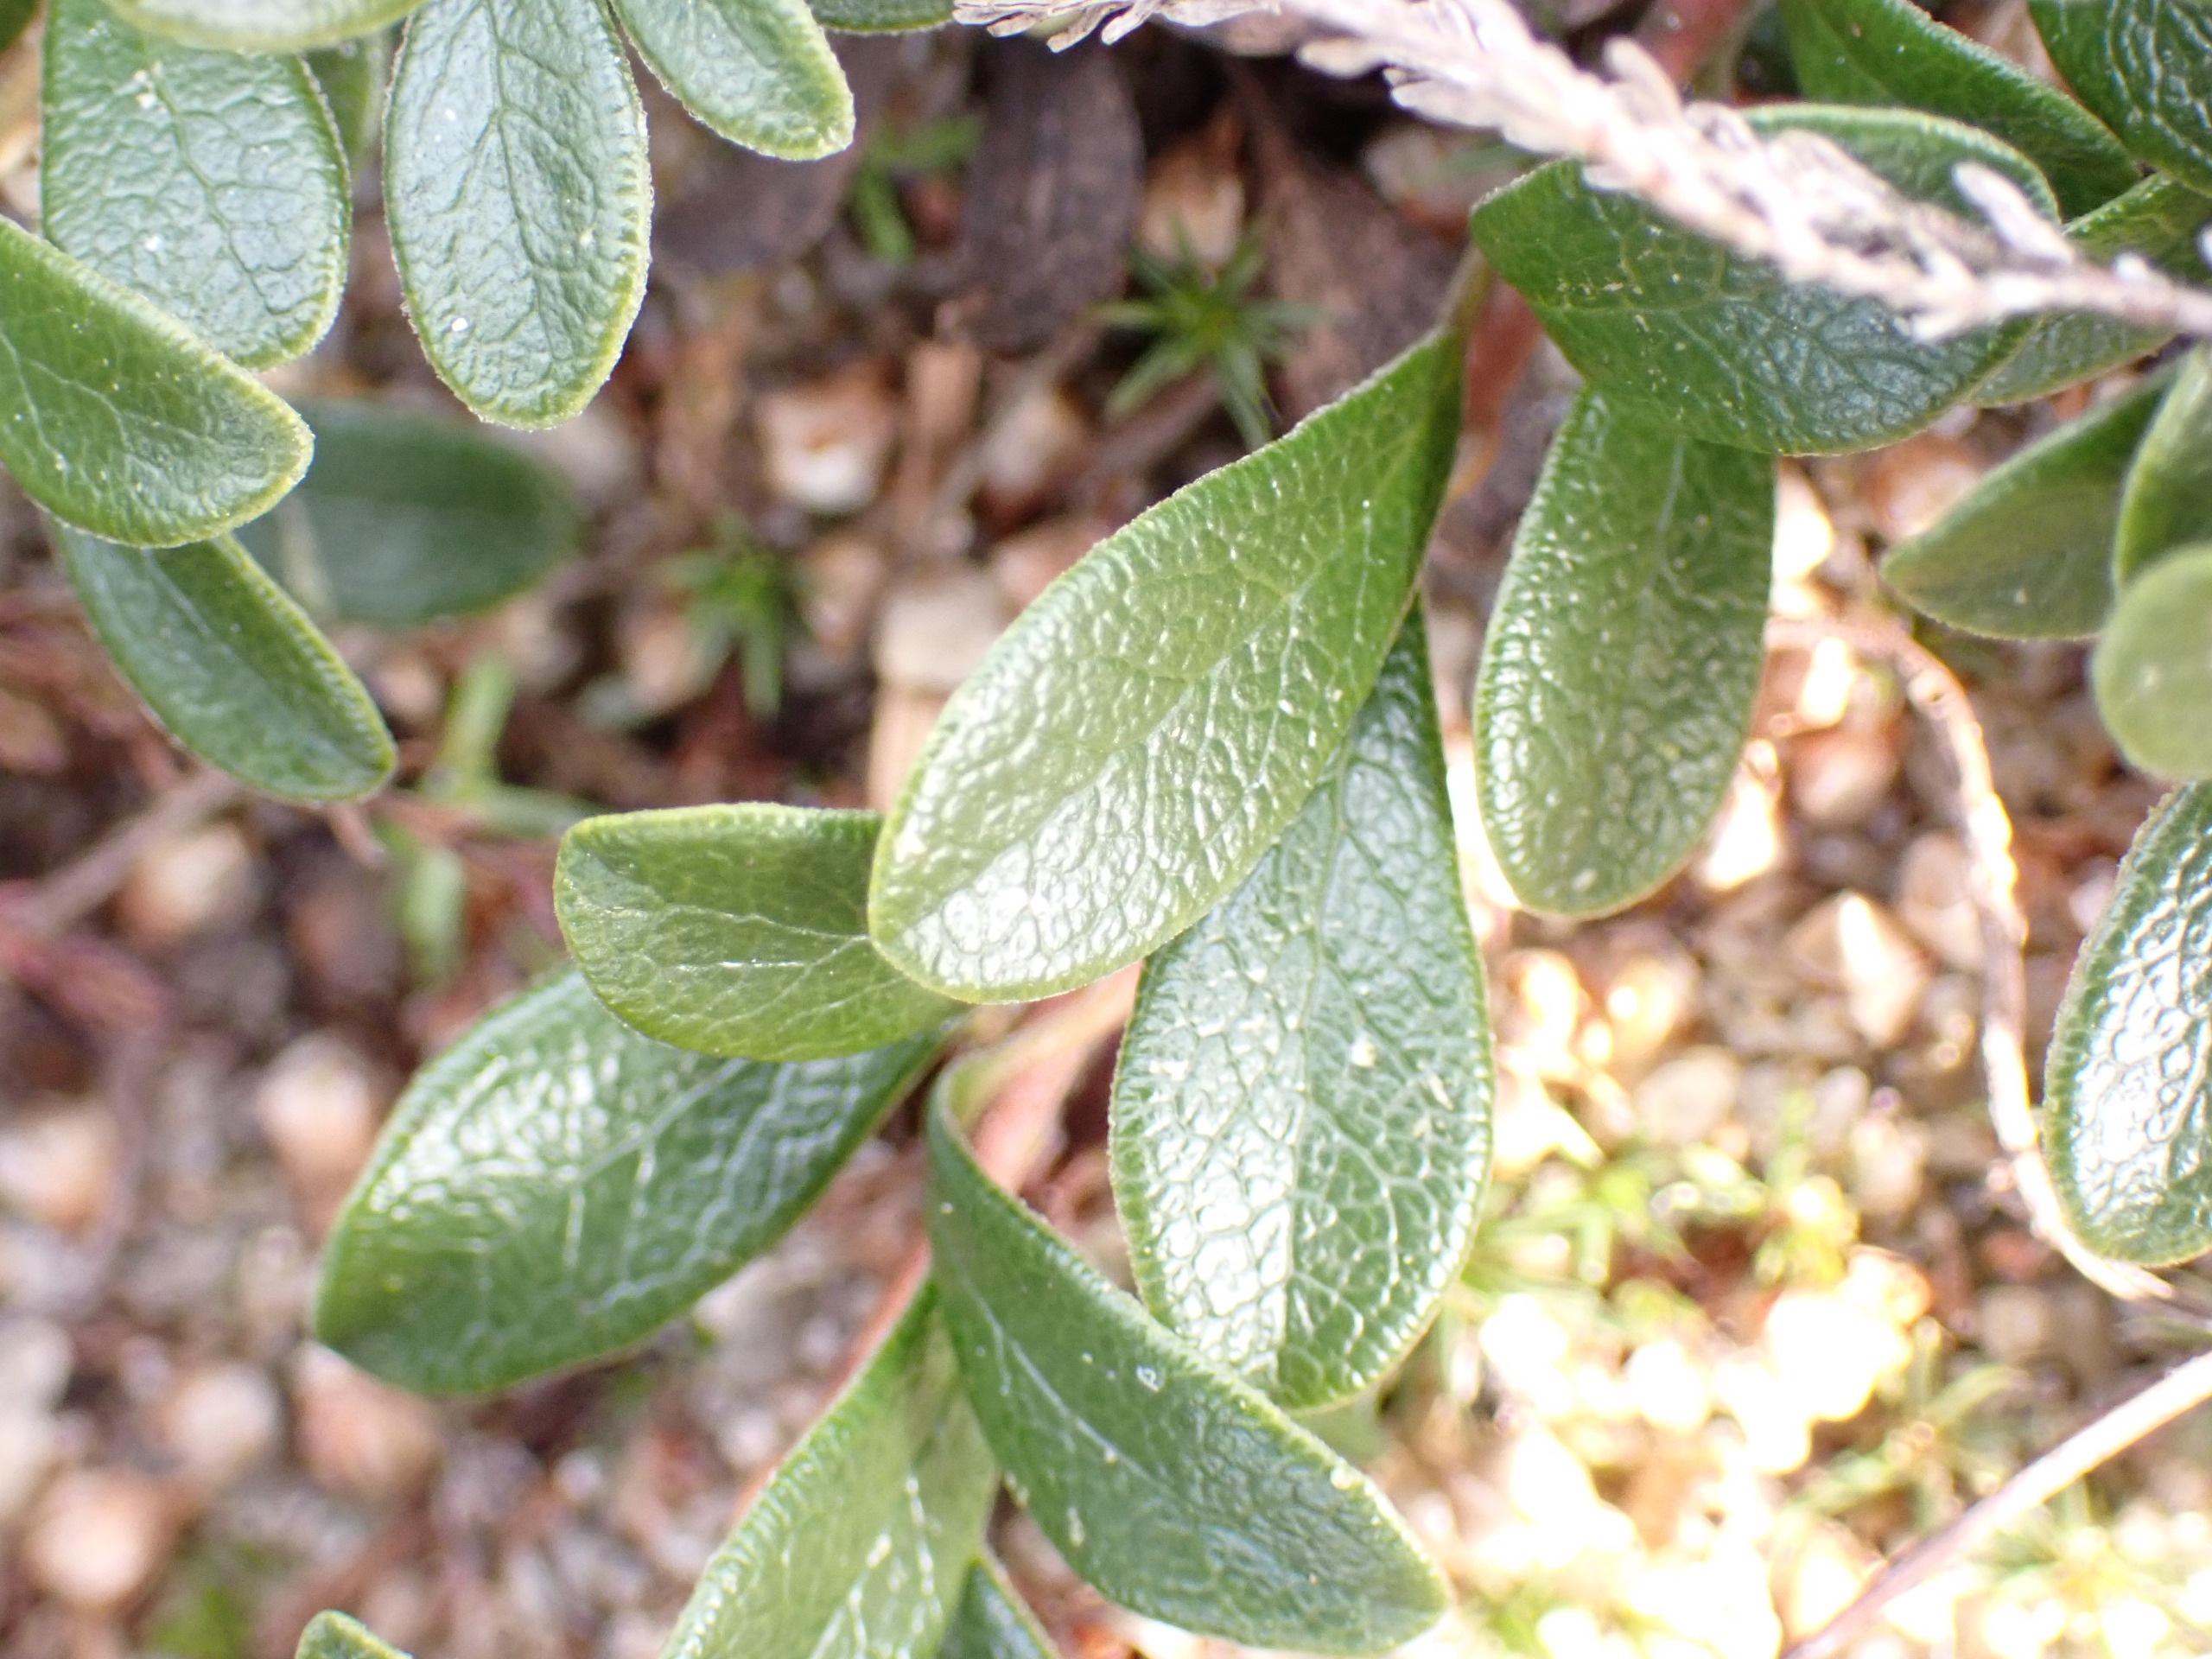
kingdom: Plantae
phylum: Tracheophyta
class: Magnoliopsida
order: Ericales
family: Ericaceae
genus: Arctostaphylos
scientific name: Arctostaphylos uva-ursi
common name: Hede-melbærris
